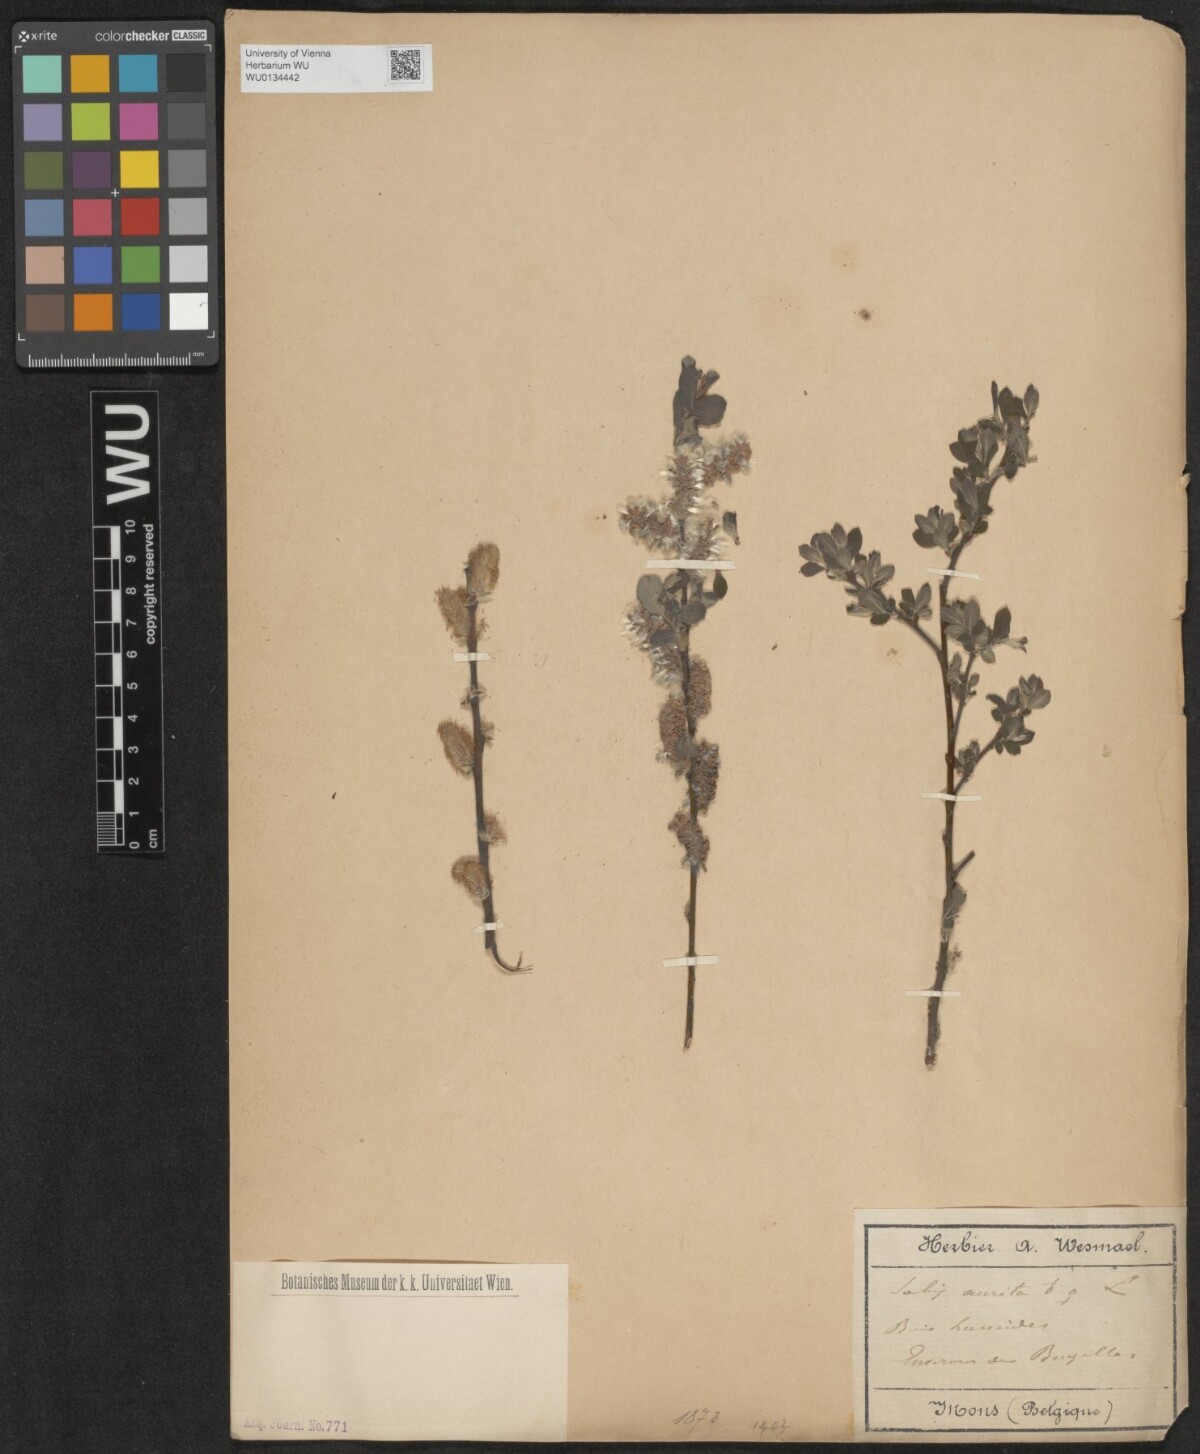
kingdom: Plantae
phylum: Tracheophyta
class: Magnoliopsida
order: Malpighiales
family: Salicaceae
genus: Salix
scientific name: Salix aurita
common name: Eared willow
